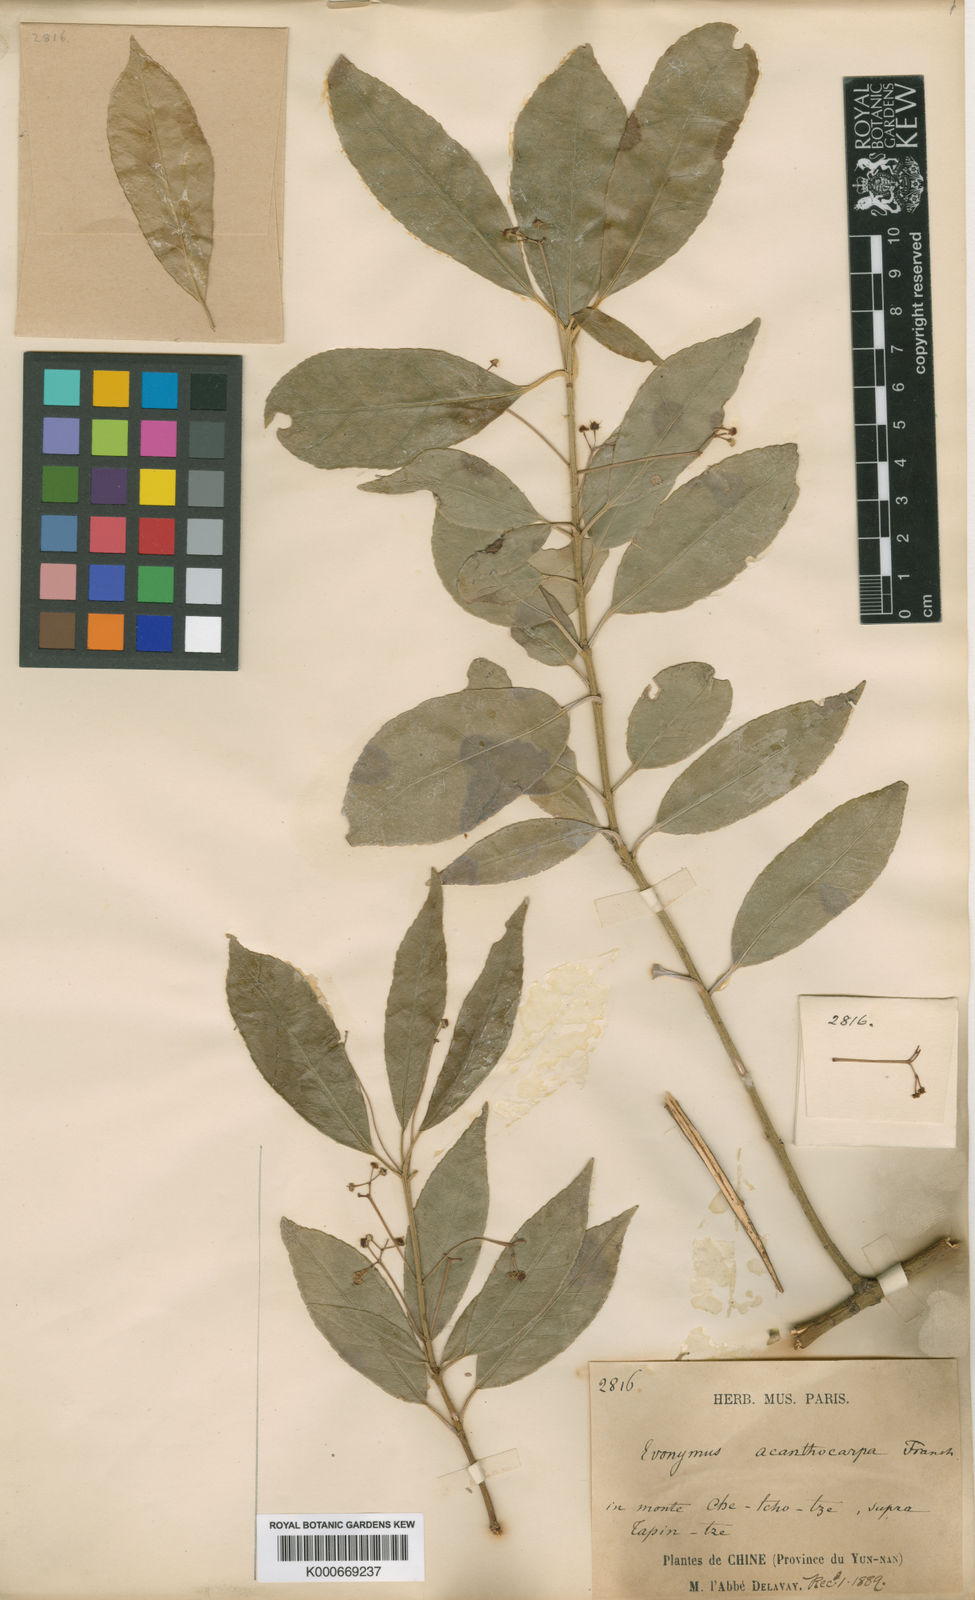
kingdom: Plantae
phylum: Tracheophyta
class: Magnoliopsida
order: Celastrales
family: Celastraceae
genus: Euonymus
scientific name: Euonymus acanthocarpus
